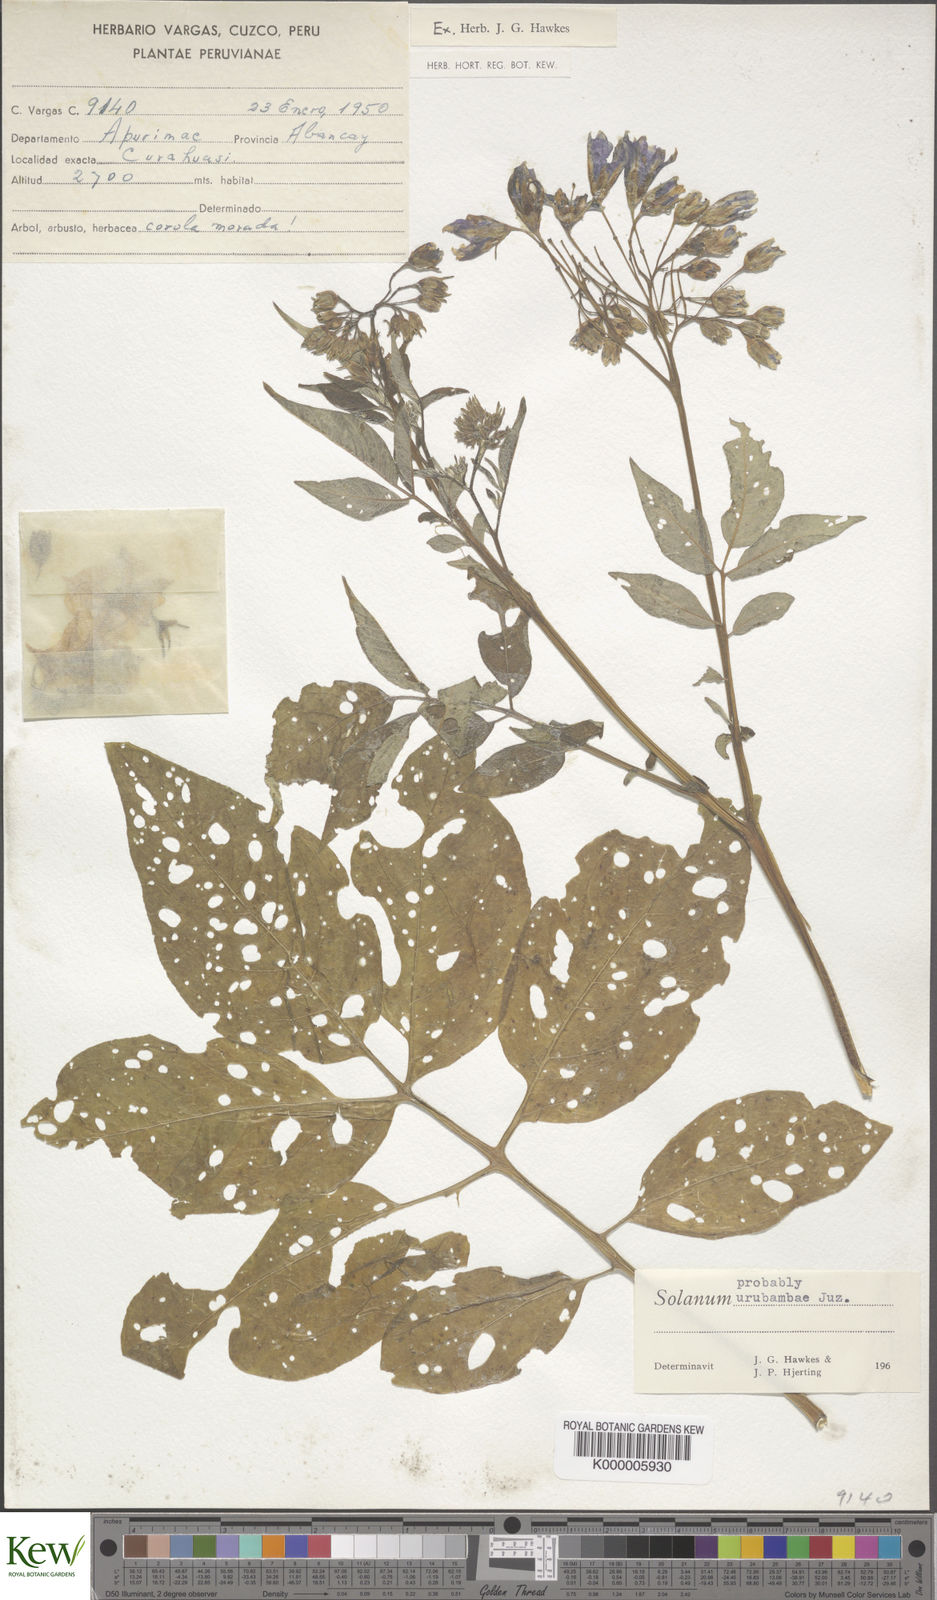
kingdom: Plantae
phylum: Tracheophyta
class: Magnoliopsida
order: Solanales
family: Solanaceae
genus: Solanum
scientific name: Solanum pillahuatense
